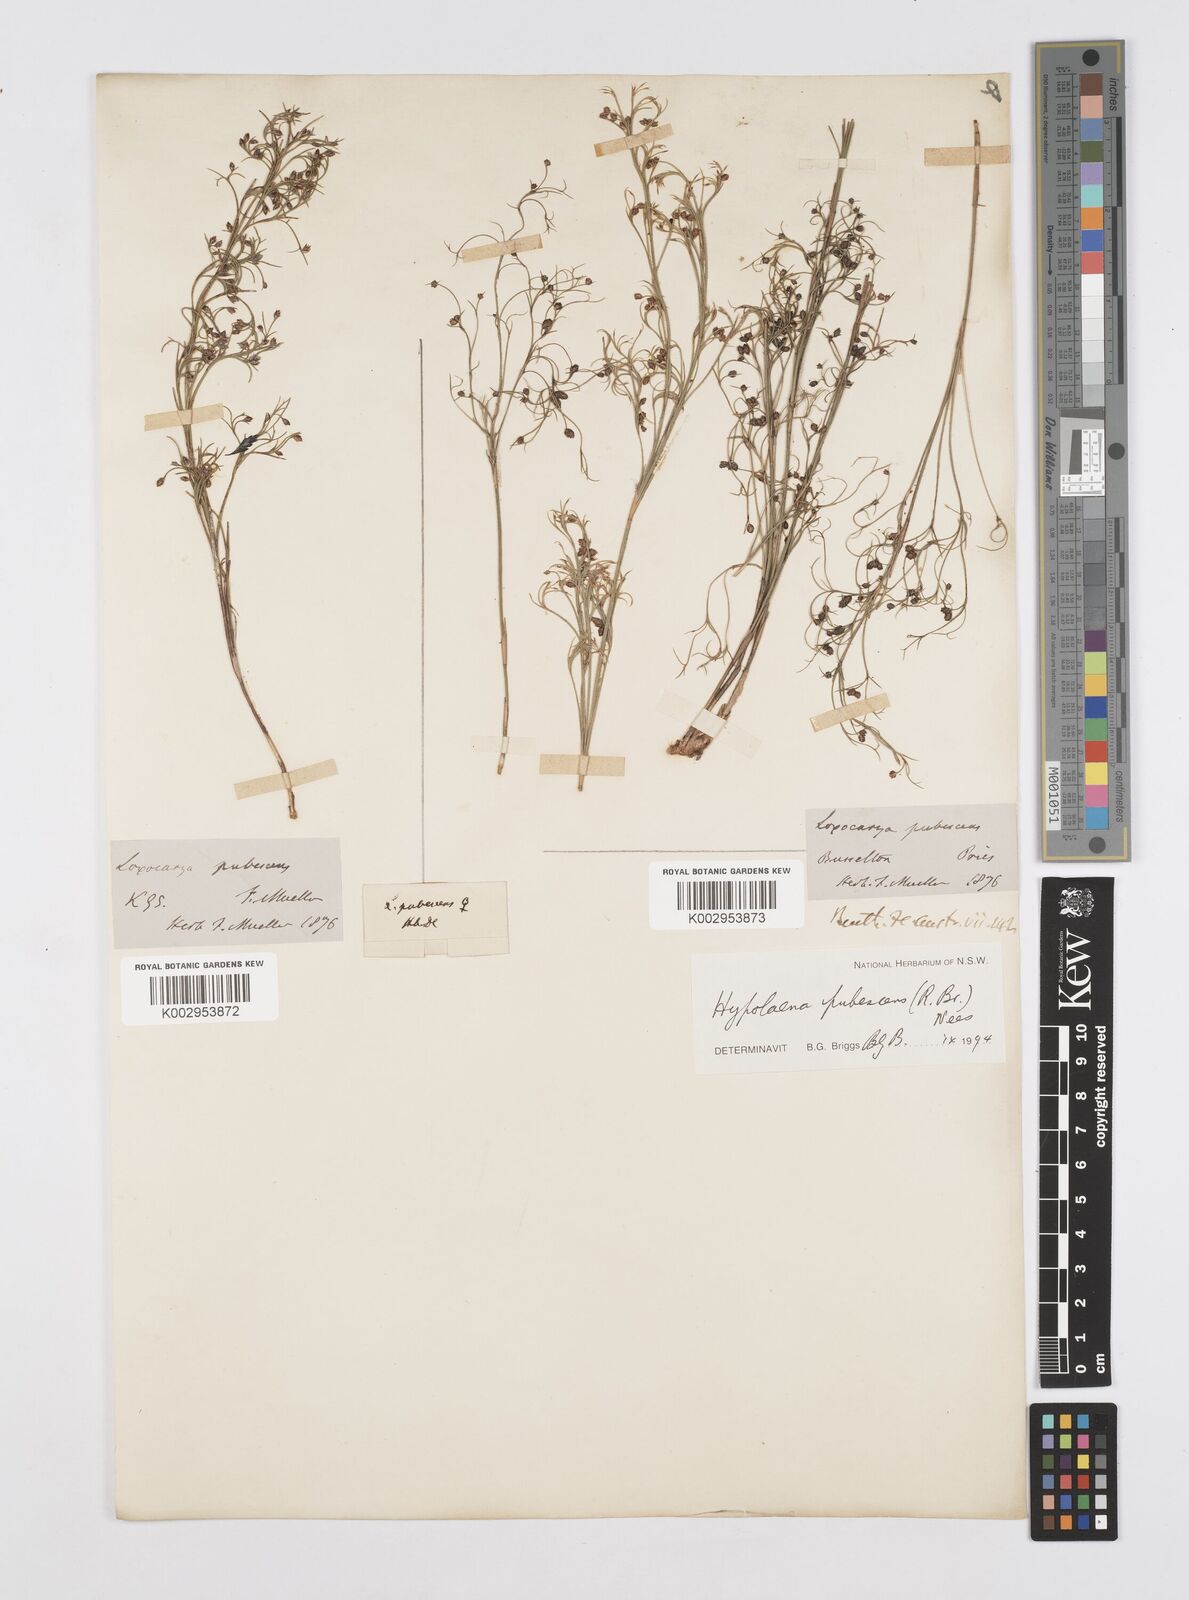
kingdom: Plantae
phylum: Tracheophyta
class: Liliopsida
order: Poales
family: Restionaceae
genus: Hypolaena
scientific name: Hypolaena pubescens
